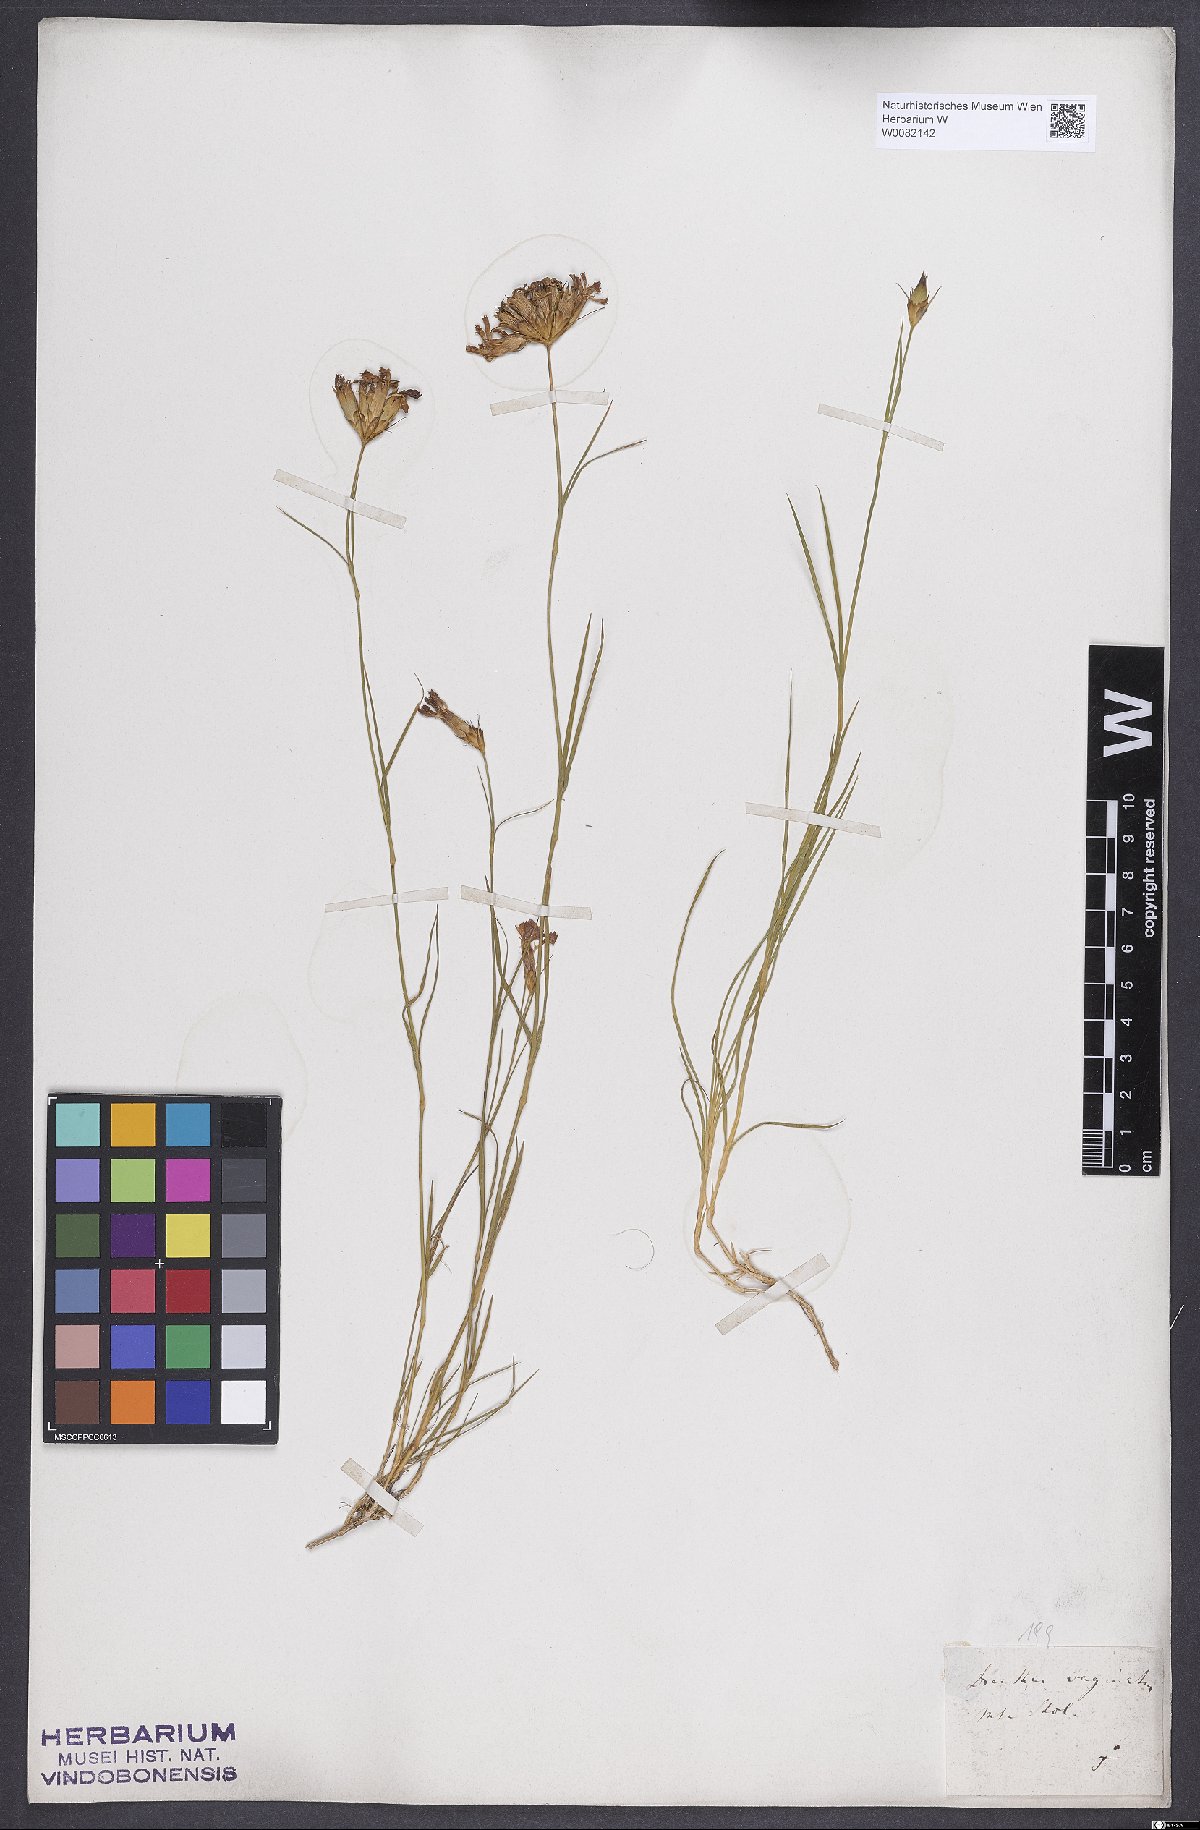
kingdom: Plantae
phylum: Tracheophyta
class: Magnoliopsida
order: Caryophyllales
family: Caryophyllaceae
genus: Dianthus
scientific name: Dianthus carthusianorum
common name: Carthusian pink
